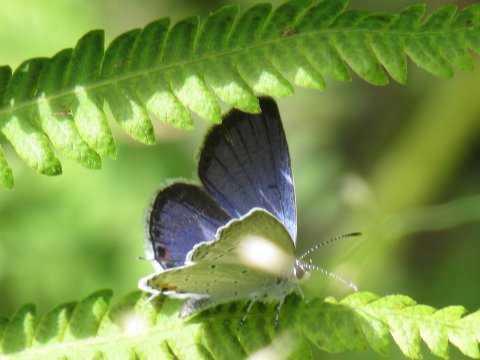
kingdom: Animalia
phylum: Arthropoda
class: Insecta
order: Lepidoptera
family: Lycaenidae
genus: Elkalyce
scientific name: Elkalyce comyntas
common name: Eastern Tailed-Blue
